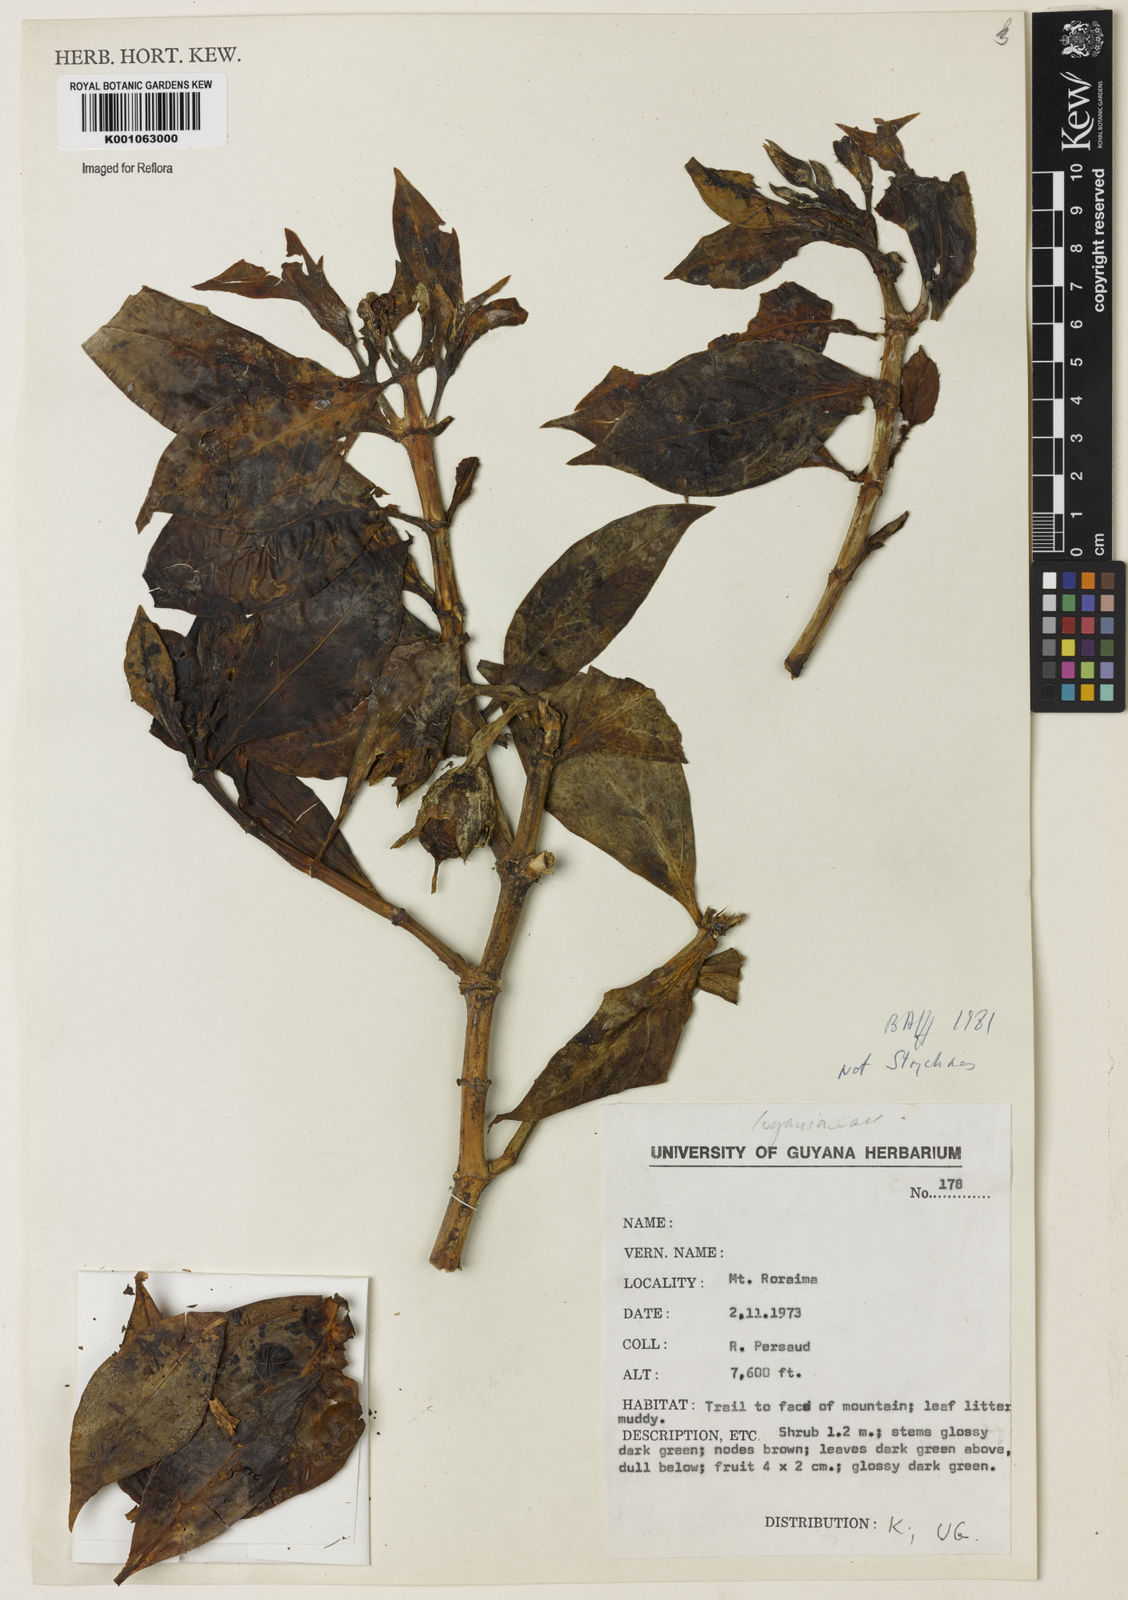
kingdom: Plantae
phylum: Tracheophyta
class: Magnoliopsida
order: Gentianales
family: Loganiaceae
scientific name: Loganiaceae
